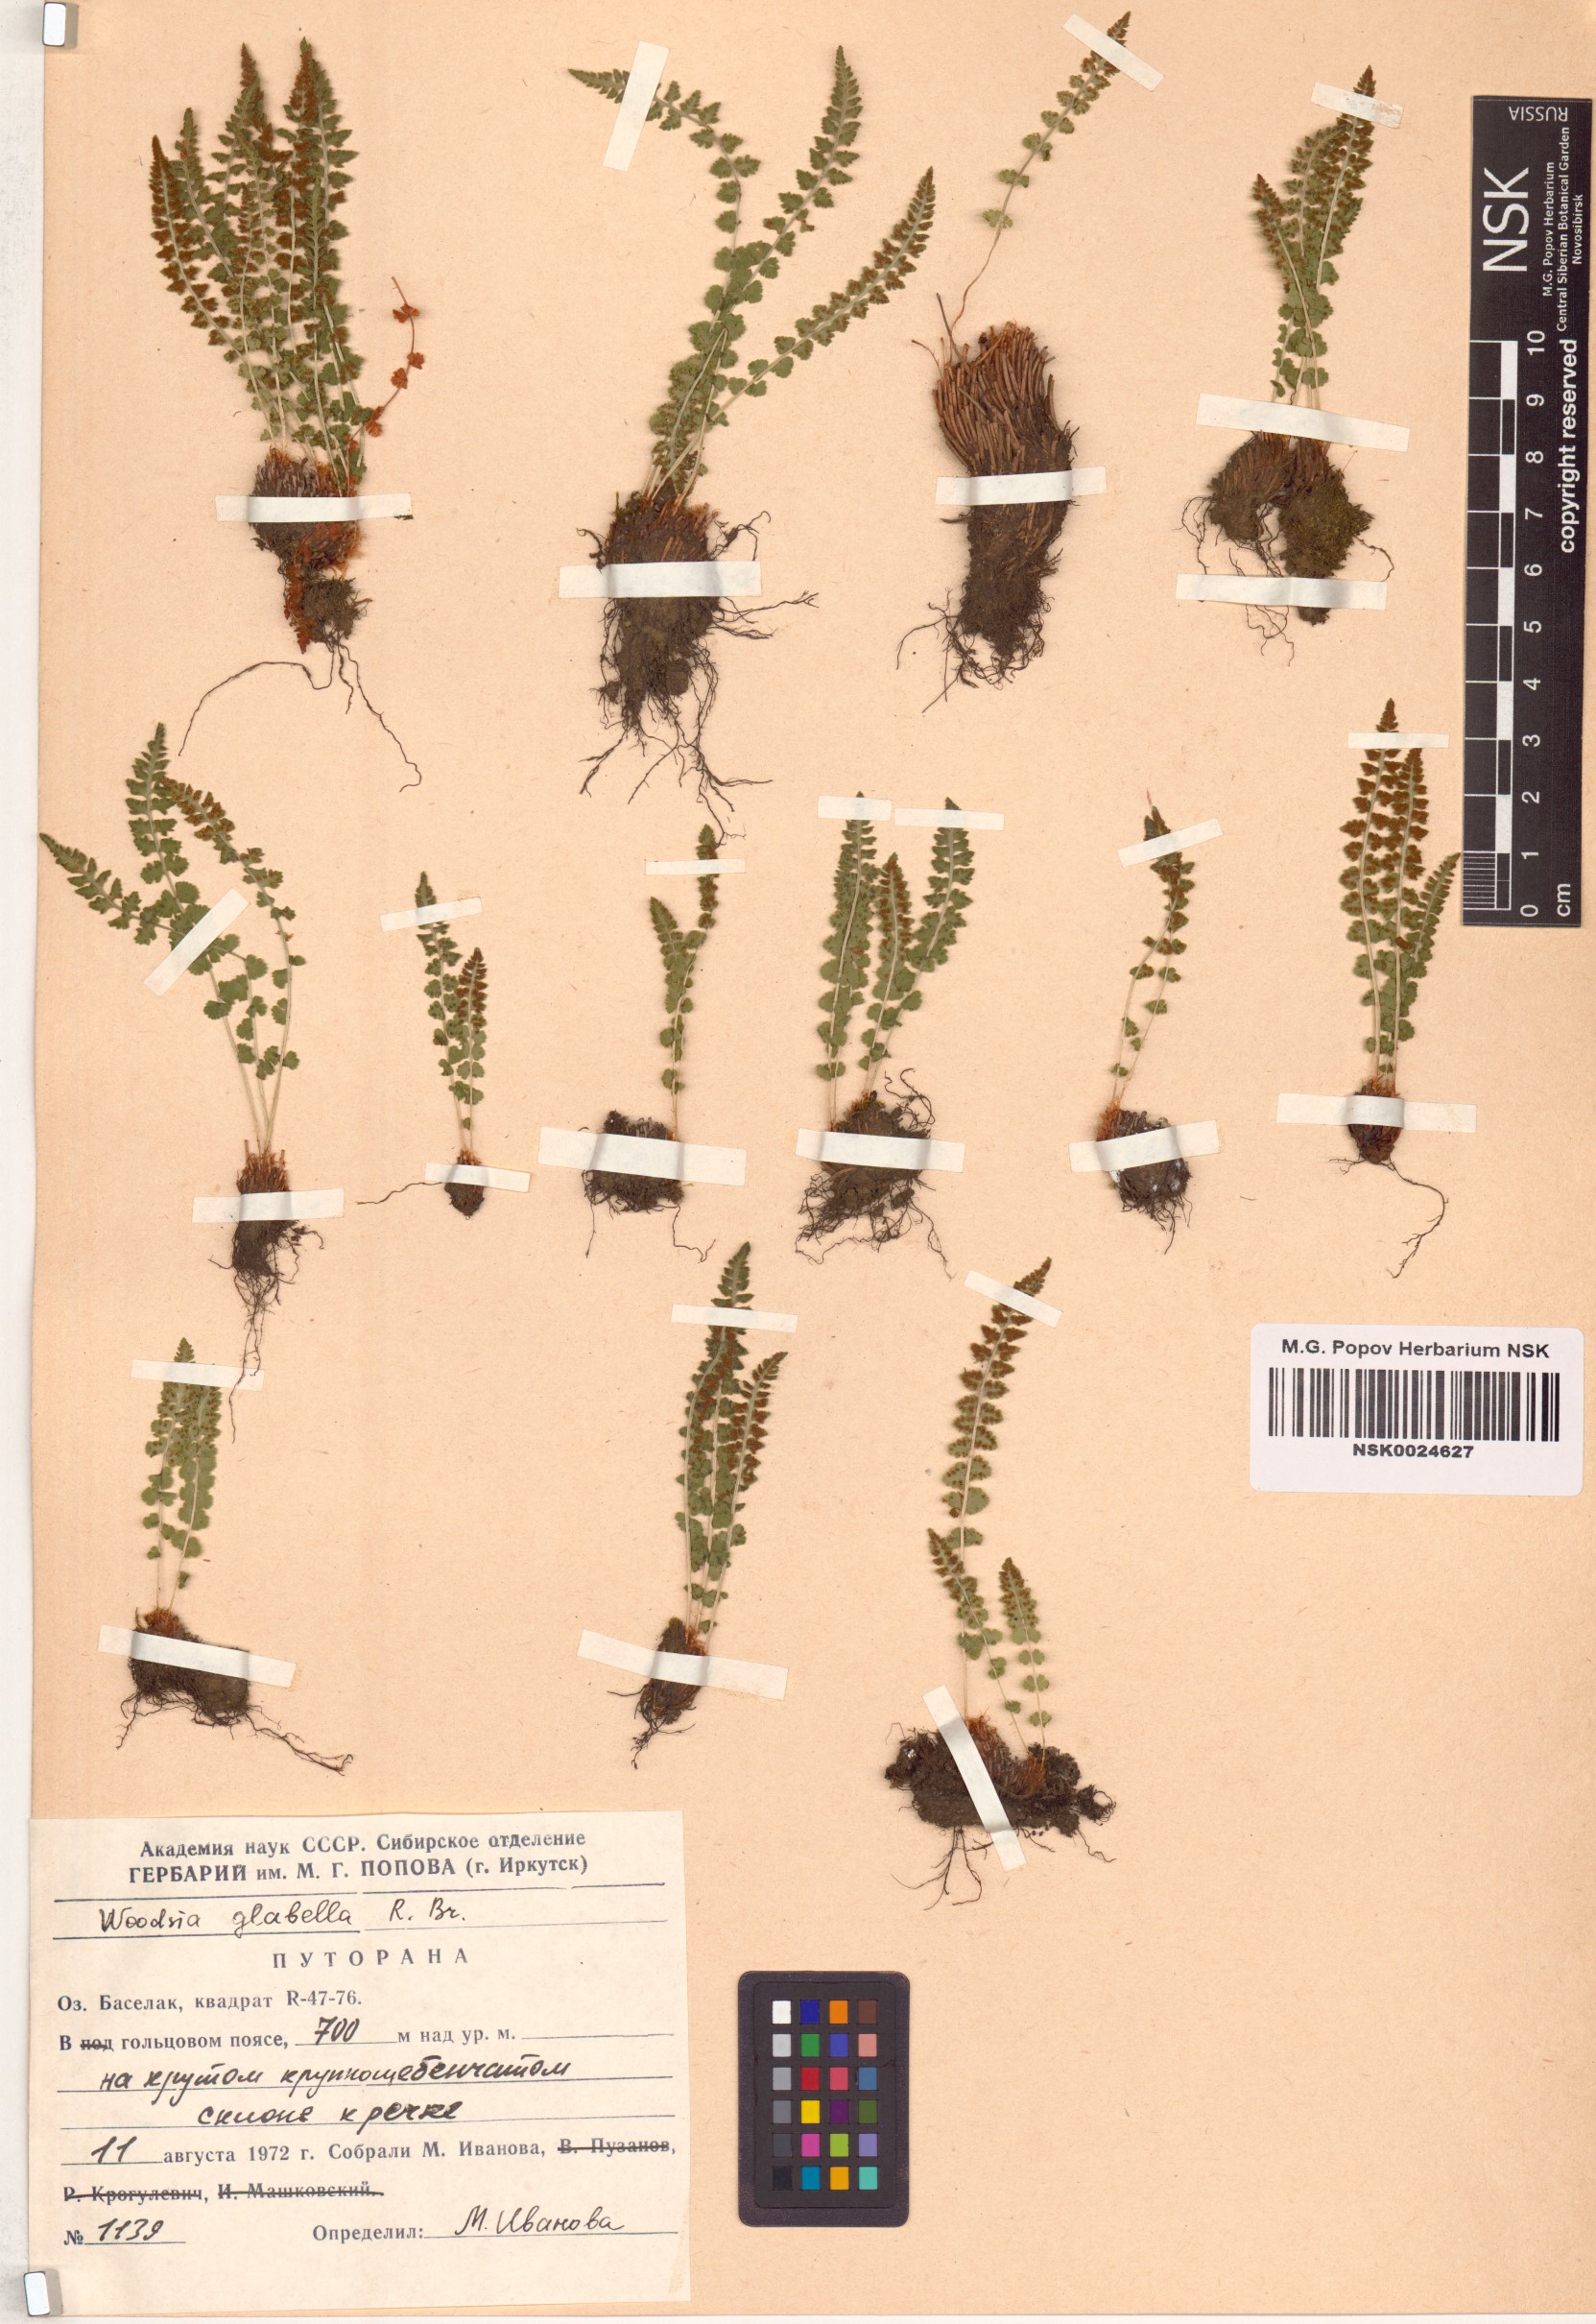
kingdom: Plantae
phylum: Tracheophyta
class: Polypodiopsida
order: Polypodiales
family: Woodsiaceae
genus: Woodsia
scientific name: Woodsia glabella
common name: Smooth woodsia
